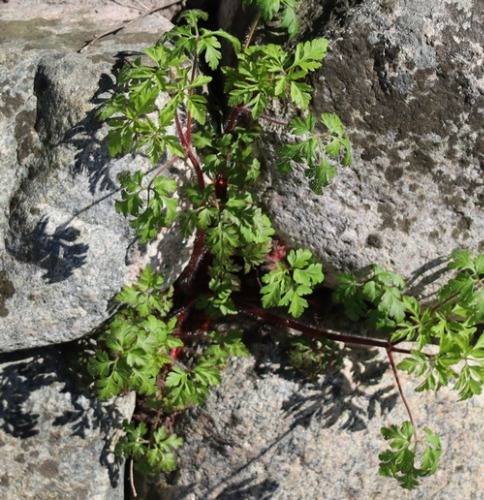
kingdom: Plantae
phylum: Tracheophyta
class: Magnoliopsida
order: Geraniales
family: Geraniaceae
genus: Geranium
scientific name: Geranium robertianum
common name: Stinkende storkenæb
